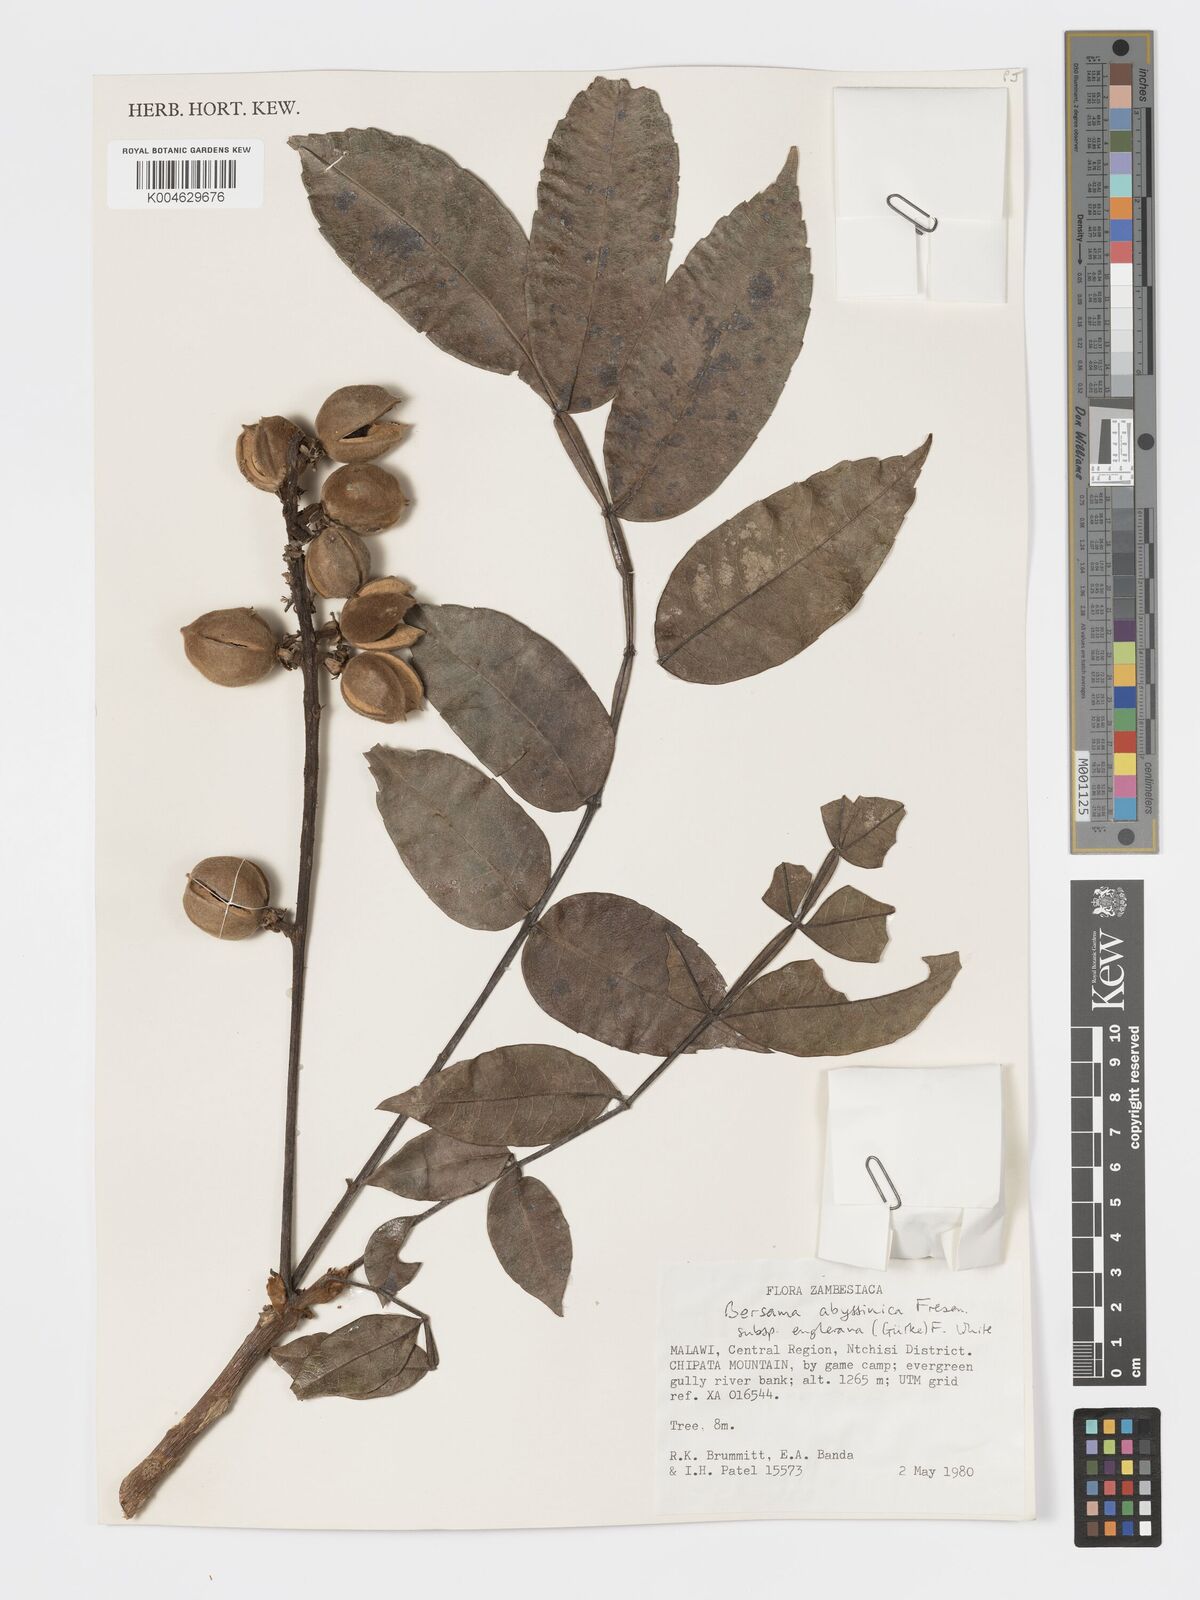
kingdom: Plantae
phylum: Tracheophyta
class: Magnoliopsida
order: Geraniales
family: Melianthaceae
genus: Bersama
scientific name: Bersama abyssinica
